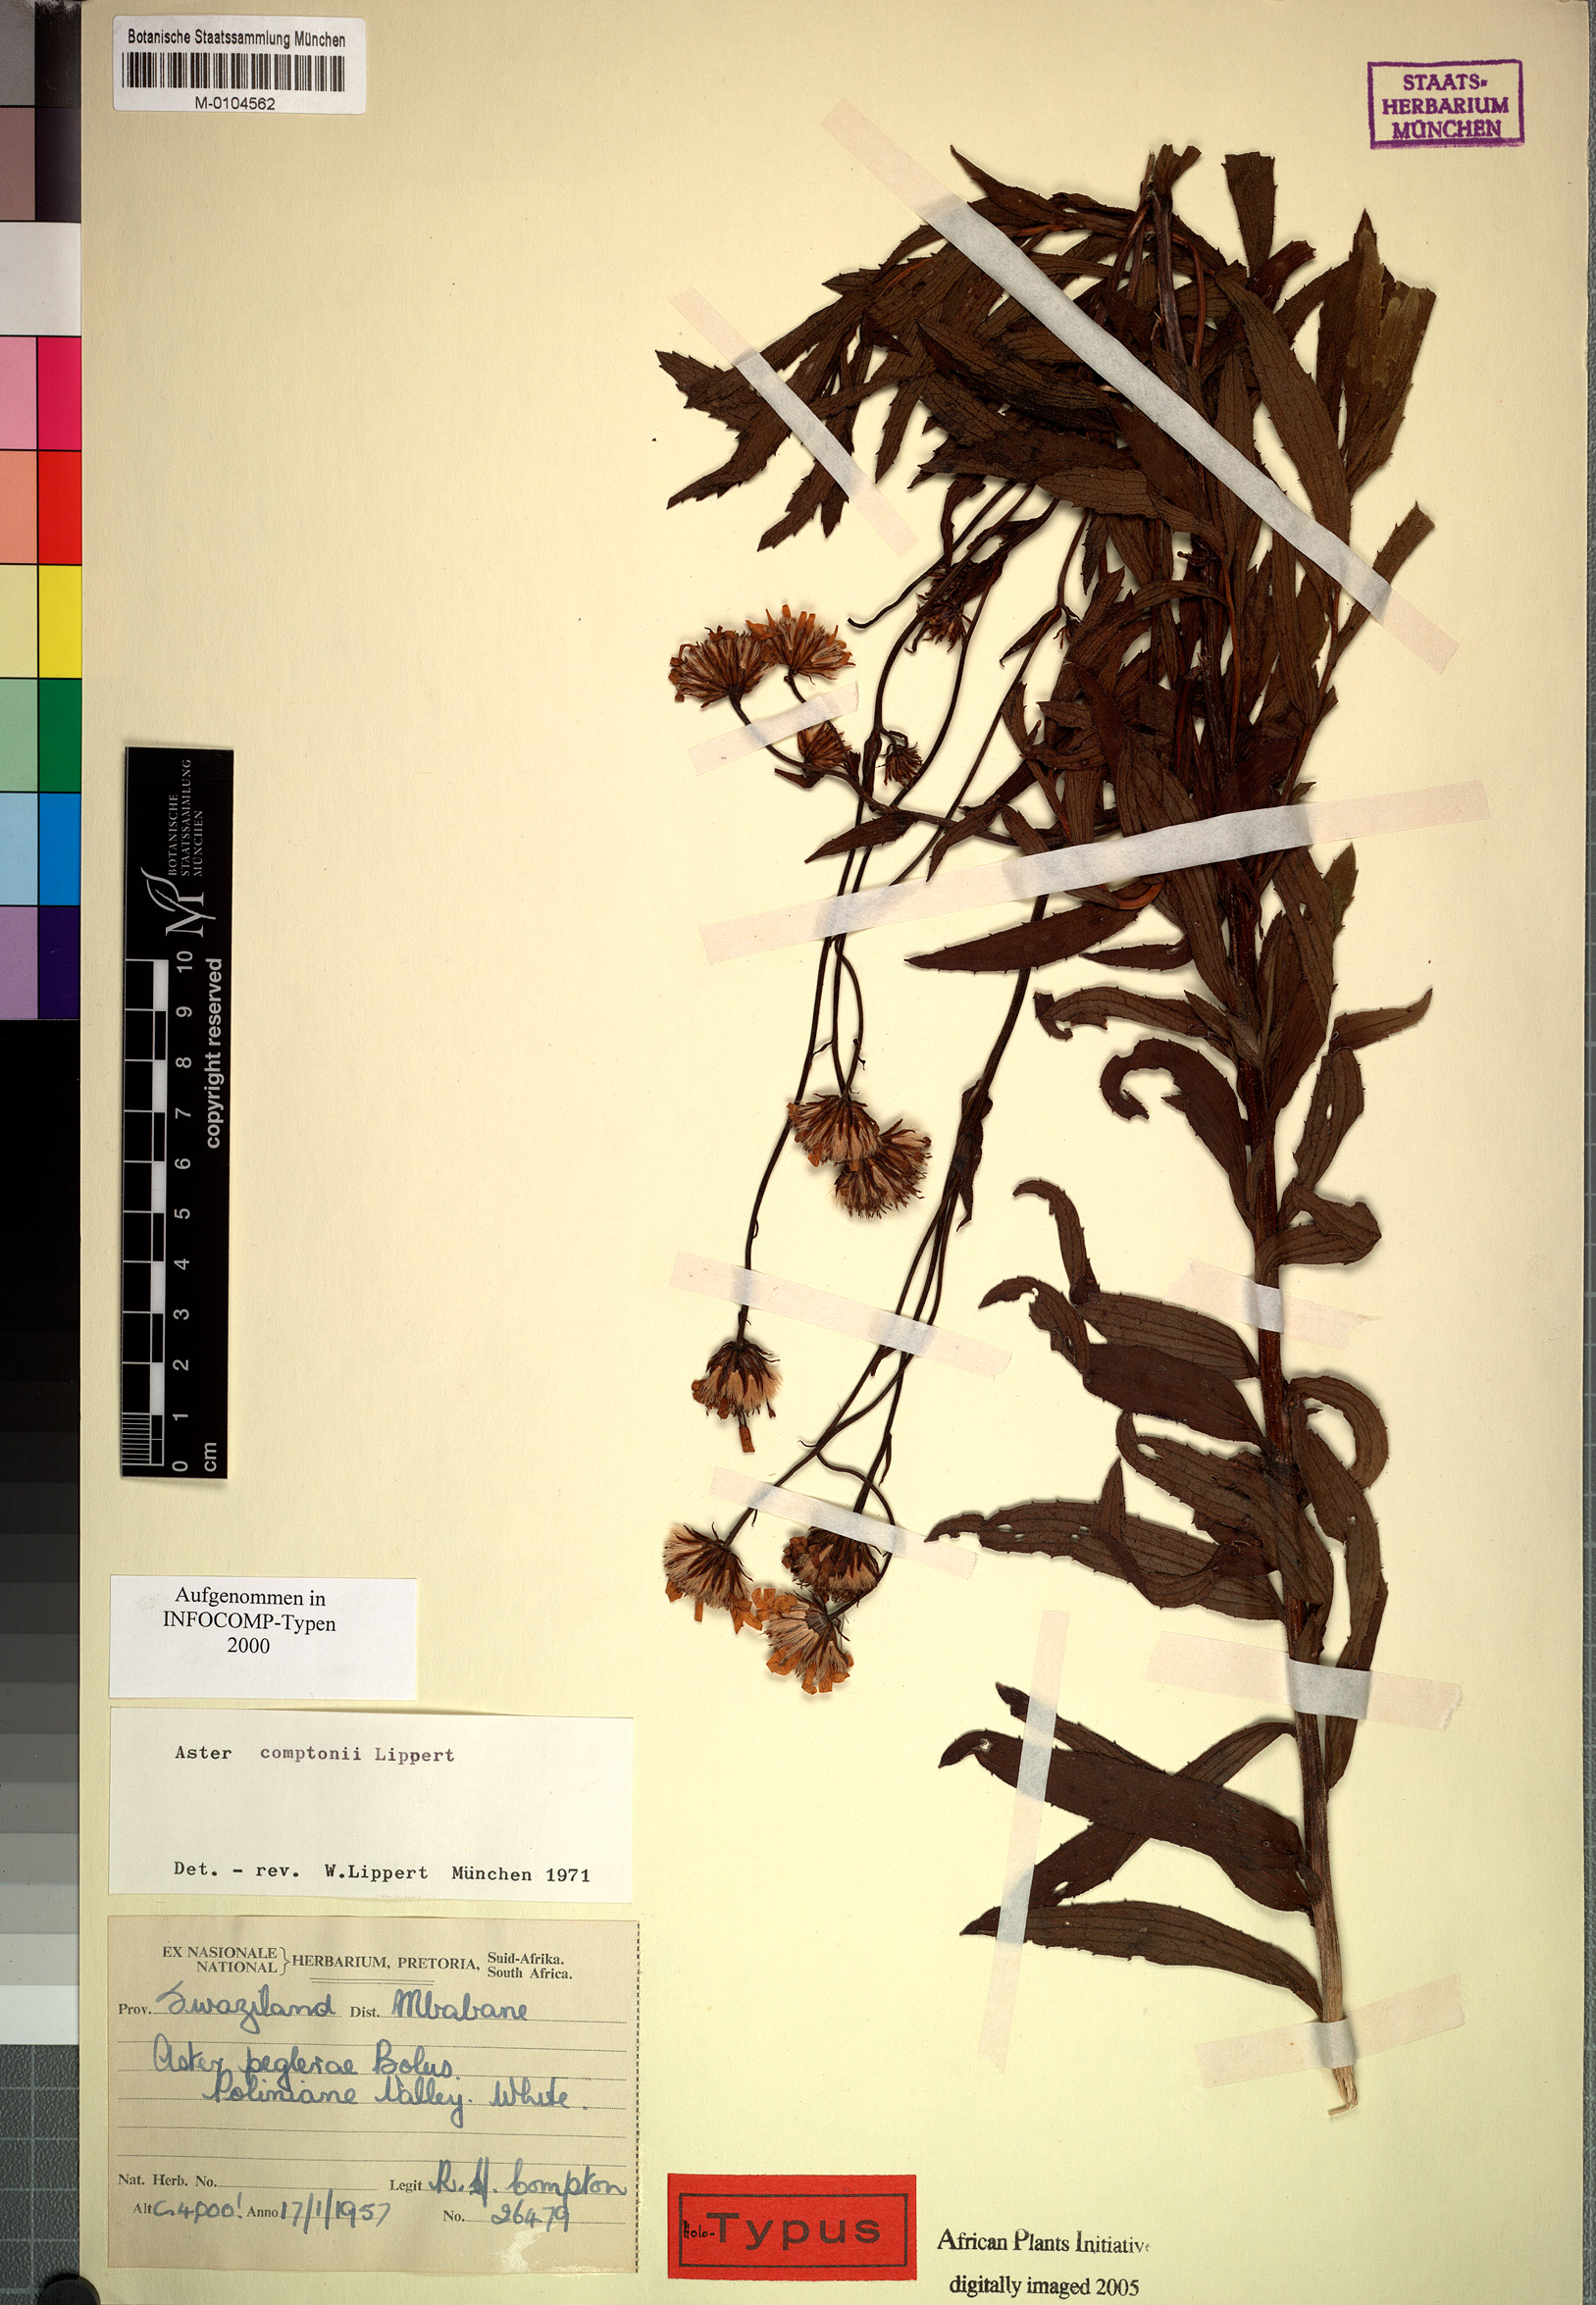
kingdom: Plantae
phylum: Tracheophyta
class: Magnoliopsida
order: Asterales
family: Asteraceae
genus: Afroaster
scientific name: Afroaster comptonii
